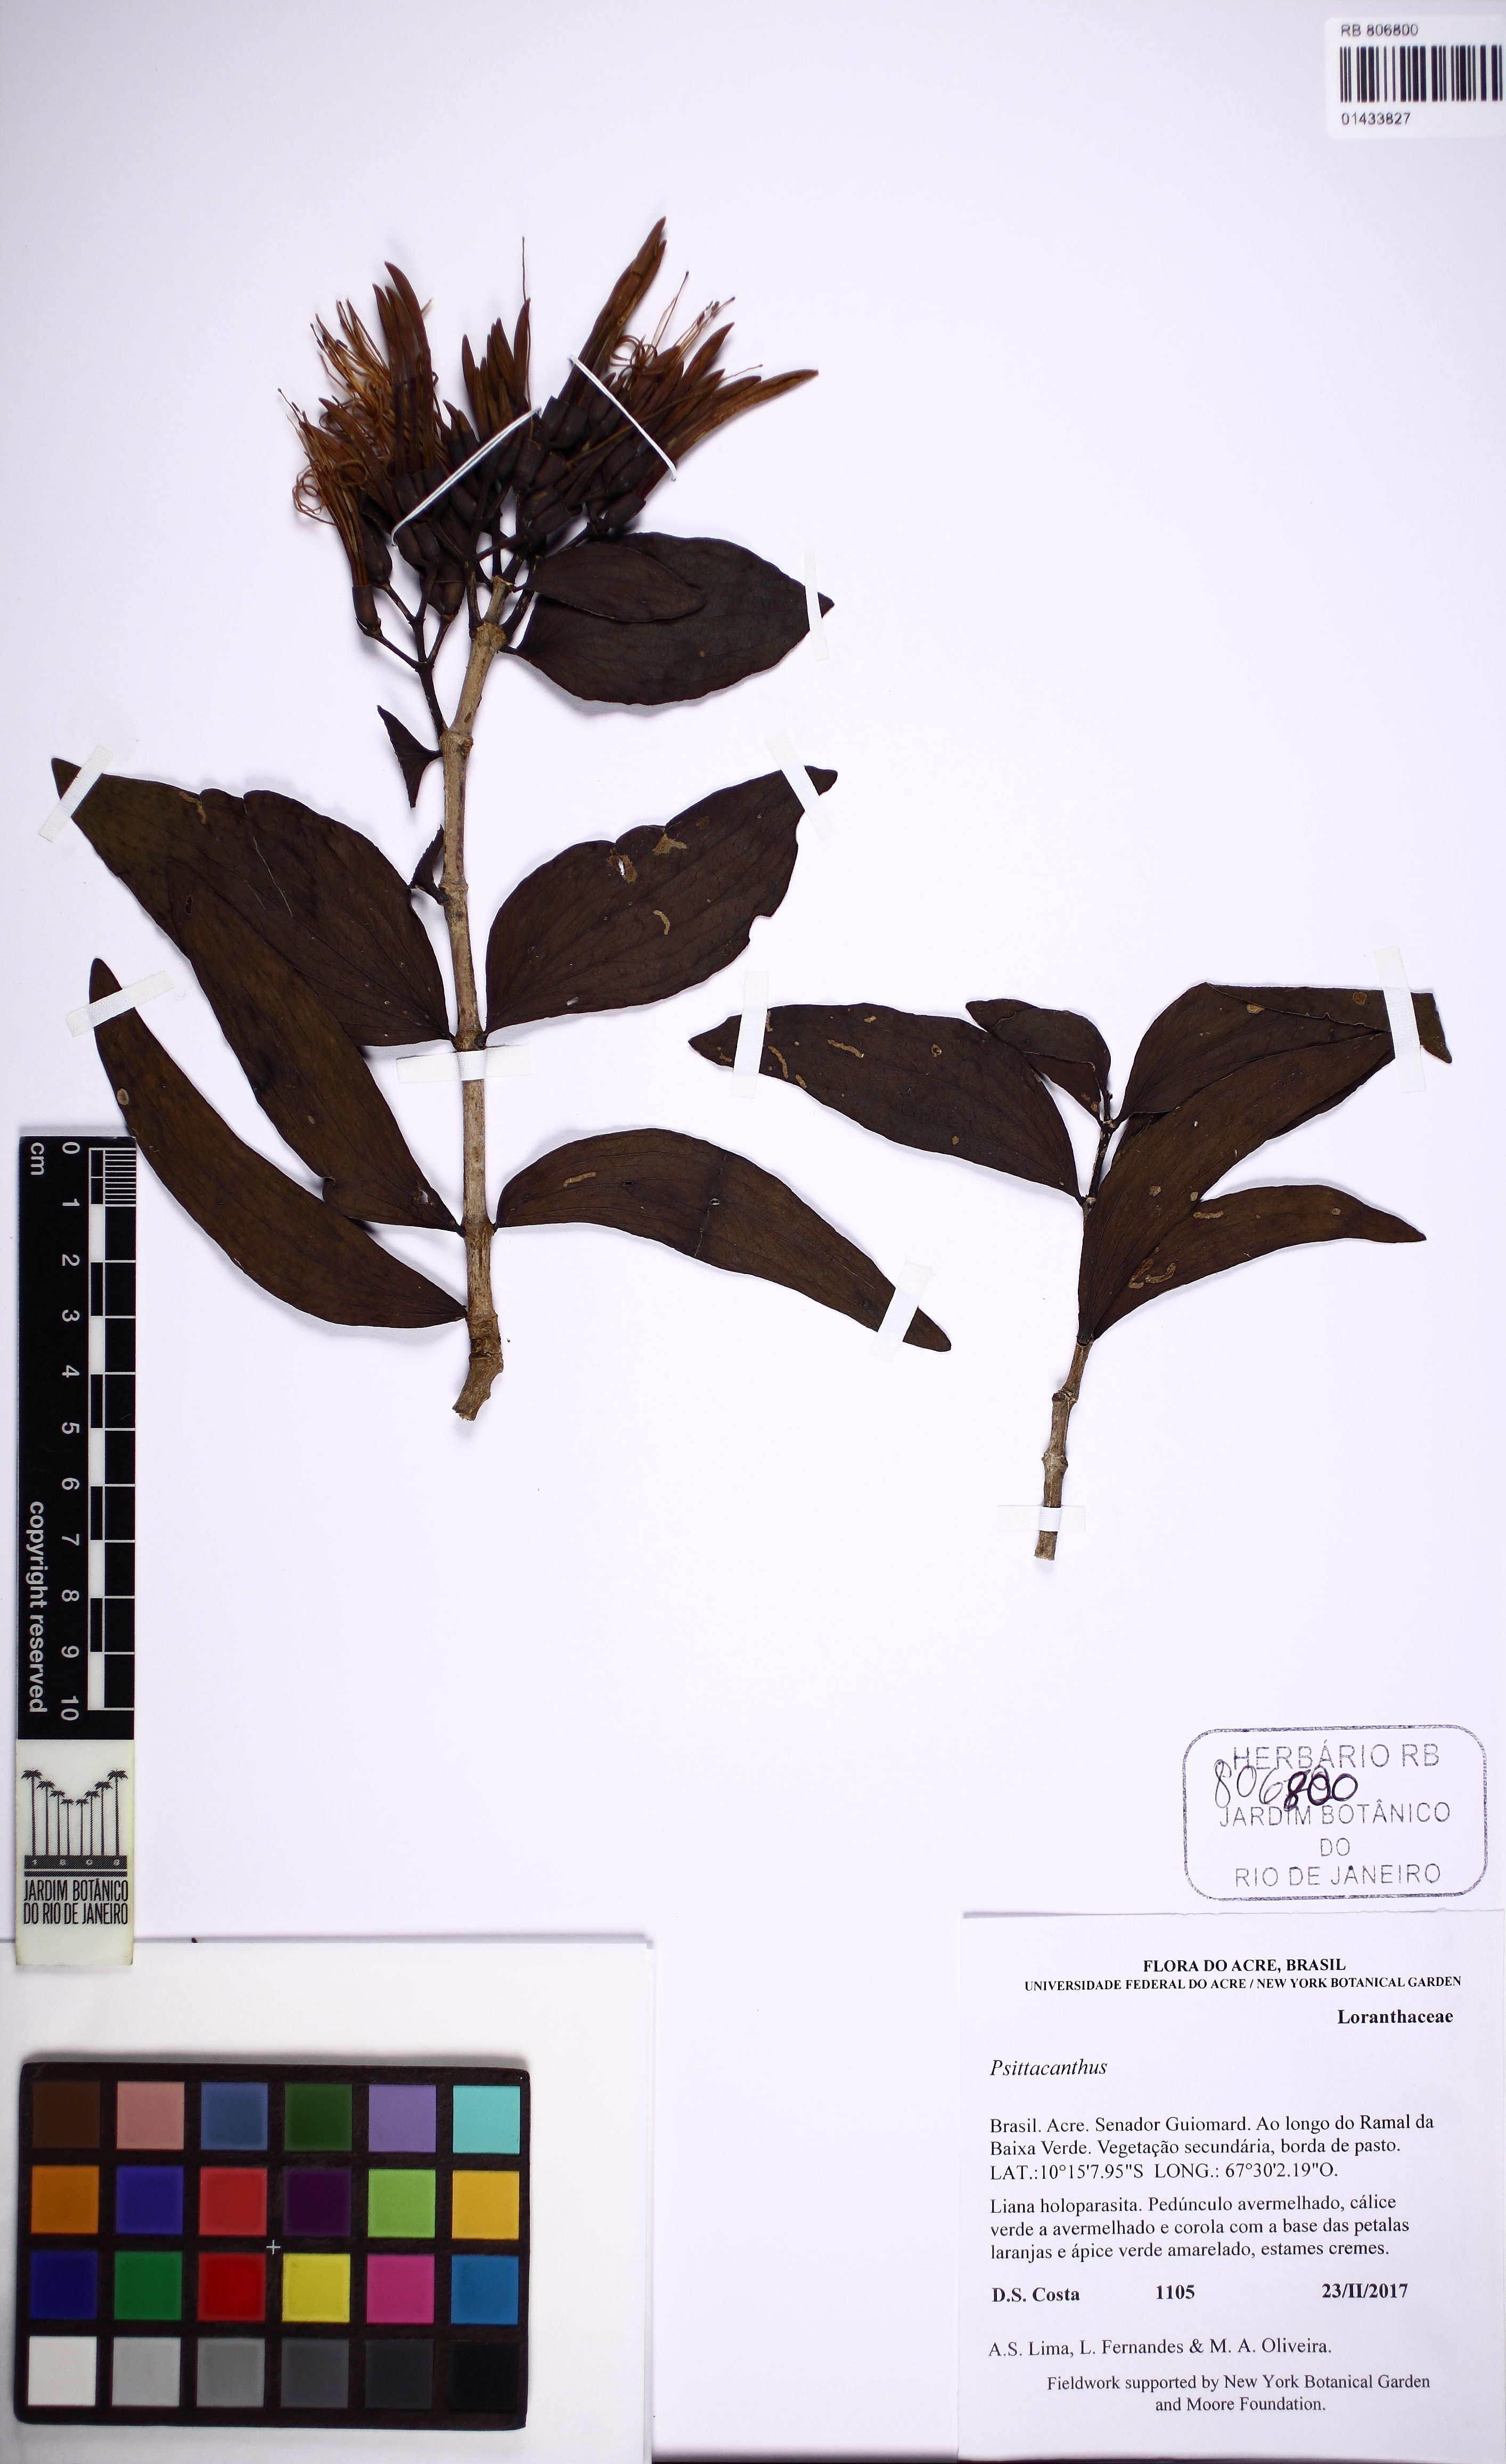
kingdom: Plantae
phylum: Tracheophyta
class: Magnoliopsida
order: Santalales
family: Loranthaceae
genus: Psittacanthus
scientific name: Psittacanthus
